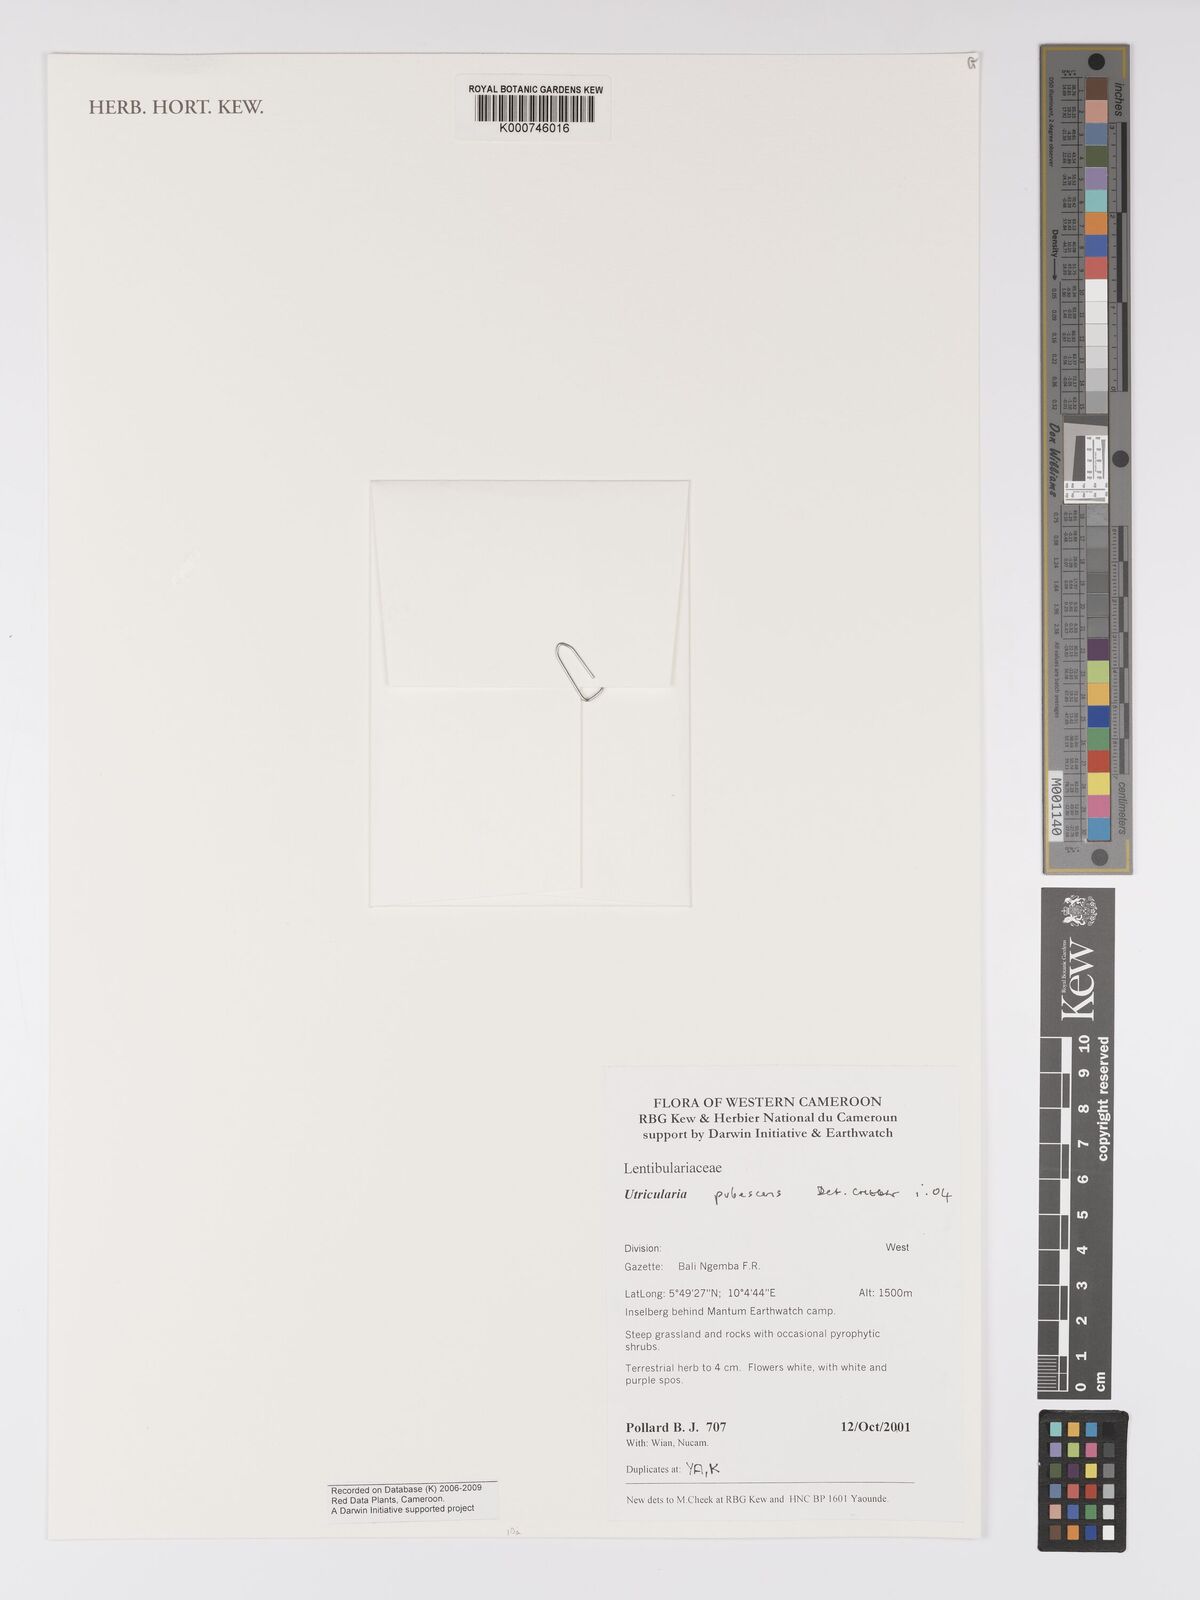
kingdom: Plantae
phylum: Tracheophyta
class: Magnoliopsida
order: Lamiales
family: Lentibulariaceae
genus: Utricularia
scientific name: Utricularia pubescens
